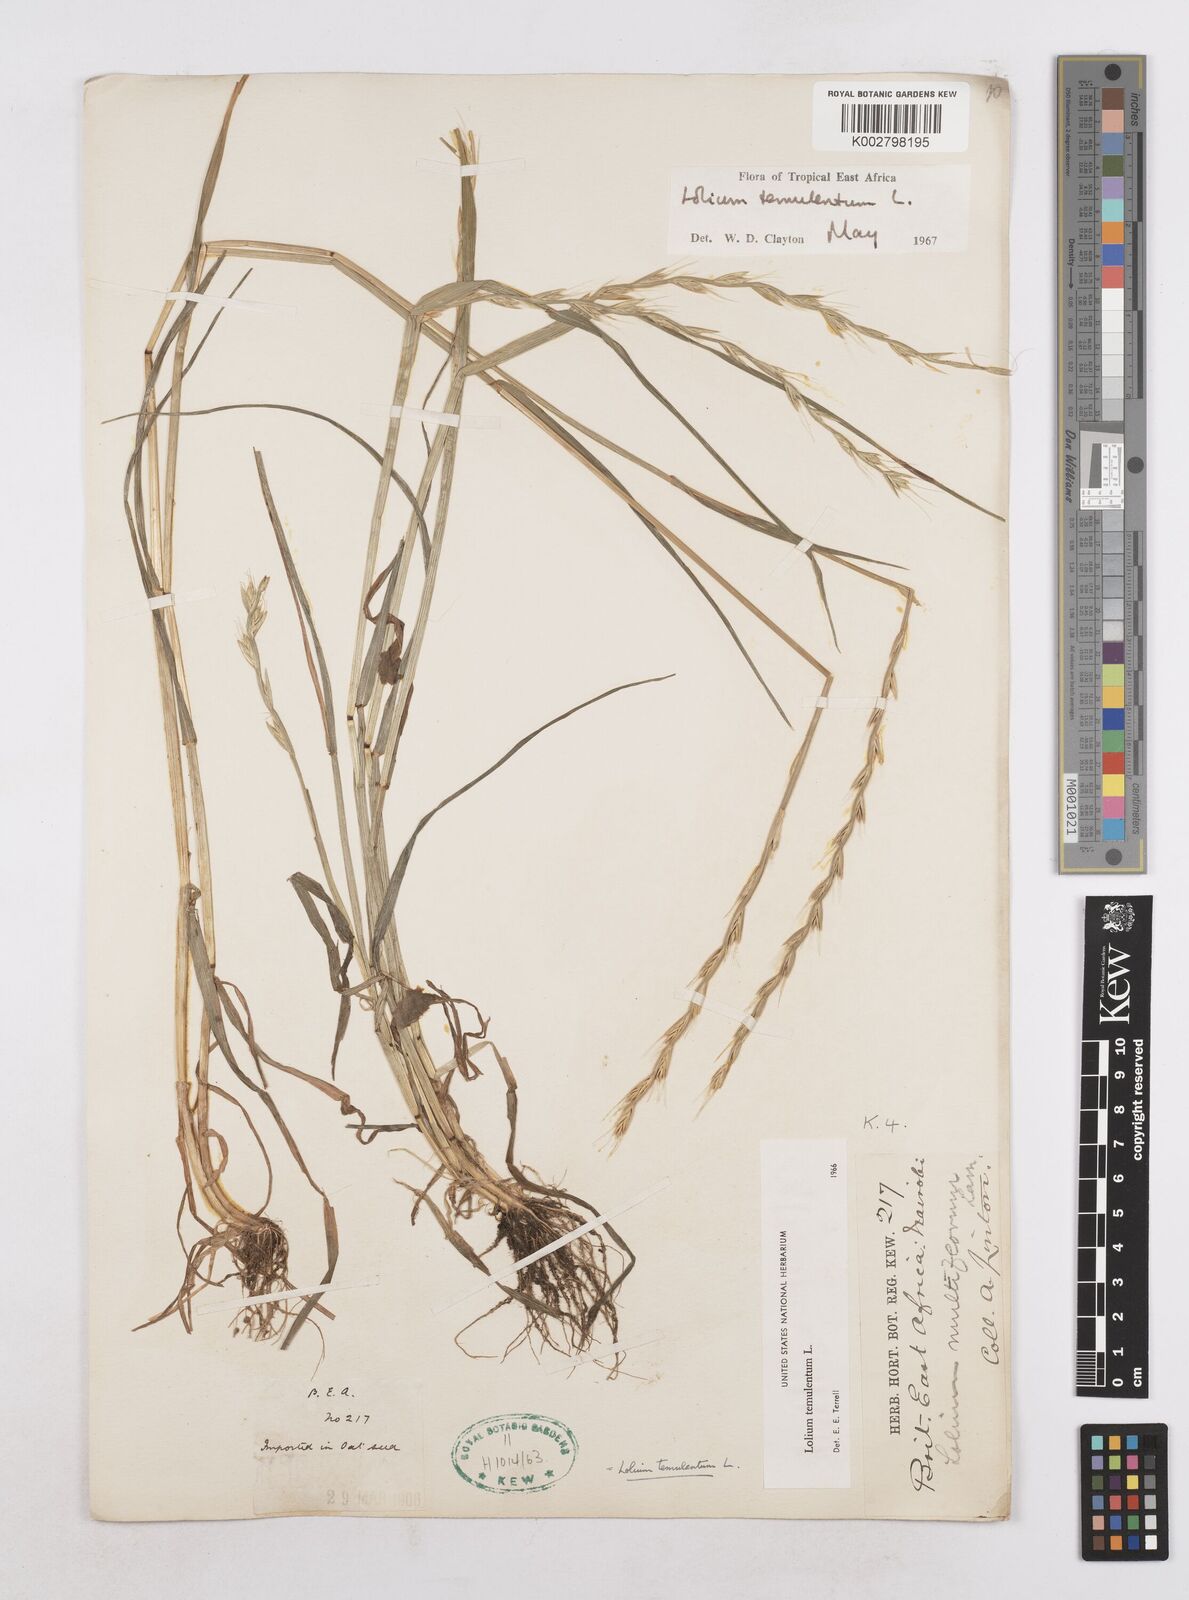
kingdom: Plantae
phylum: Tracheophyta
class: Liliopsida
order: Poales
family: Poaceae
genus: Lolium
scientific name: Lolium temulentum
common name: Darnel
